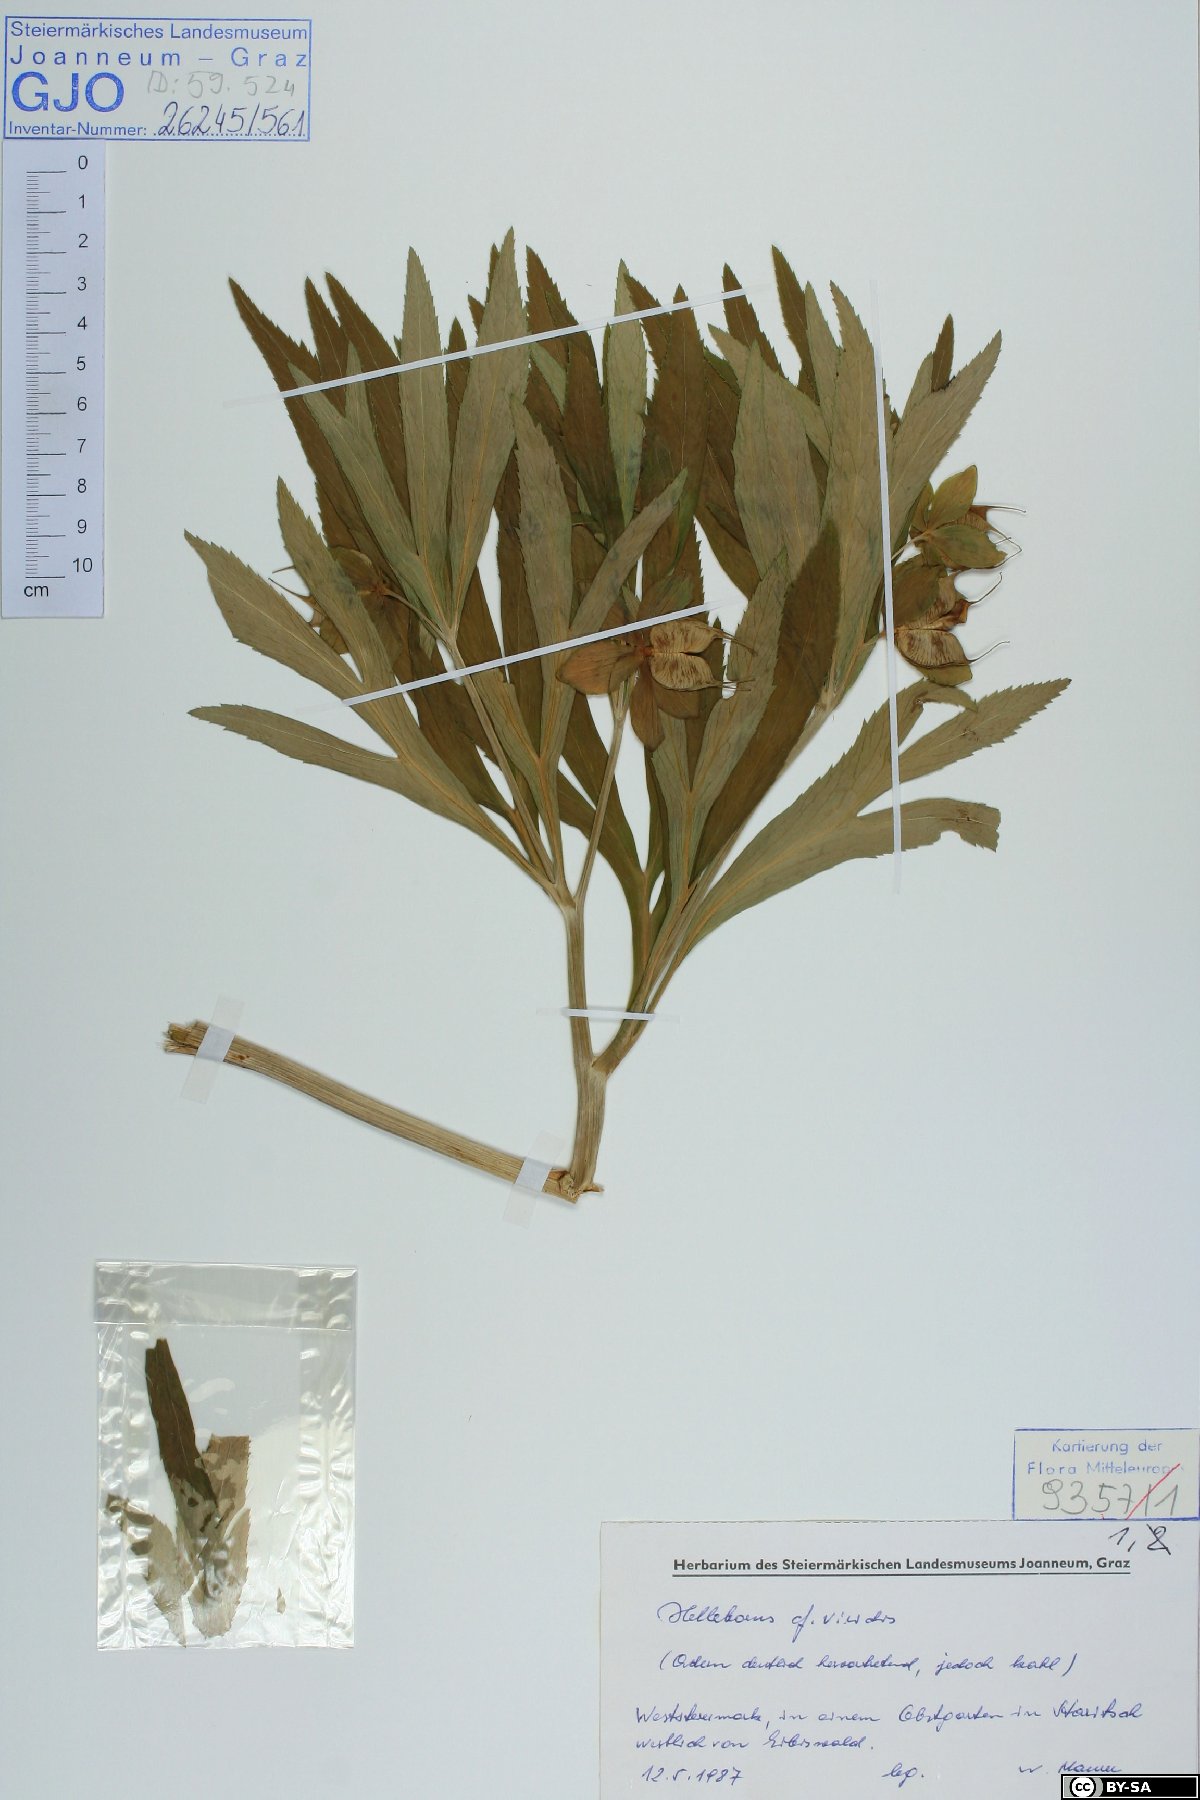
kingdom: Plantae
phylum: Tracheophyta
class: Magnoliopsida
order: Ranunculales
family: Ranunculaceae
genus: Helleborus
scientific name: Helleborus dumetorum
